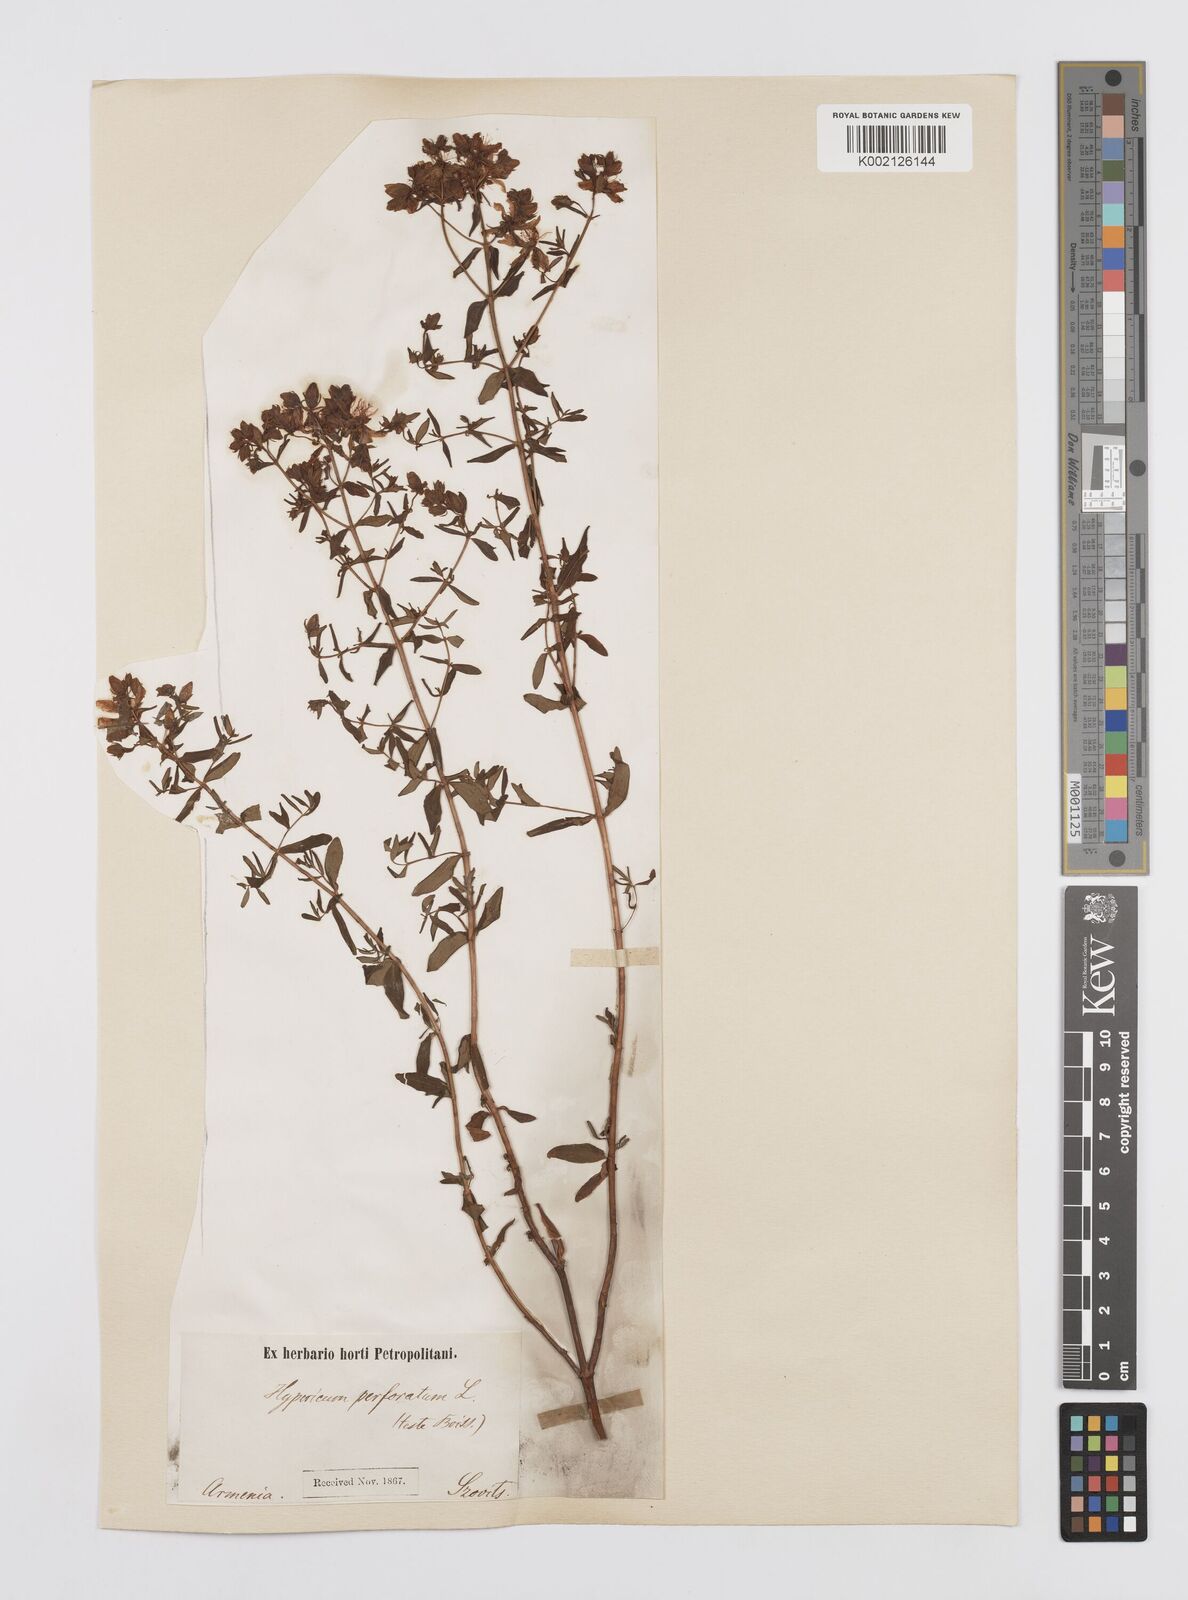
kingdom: Plantae
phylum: Tracheophyta
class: Magnoliopsida
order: Malpighiales
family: Hypericaceae
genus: Hypericum
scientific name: Hypericum perfoliatum
